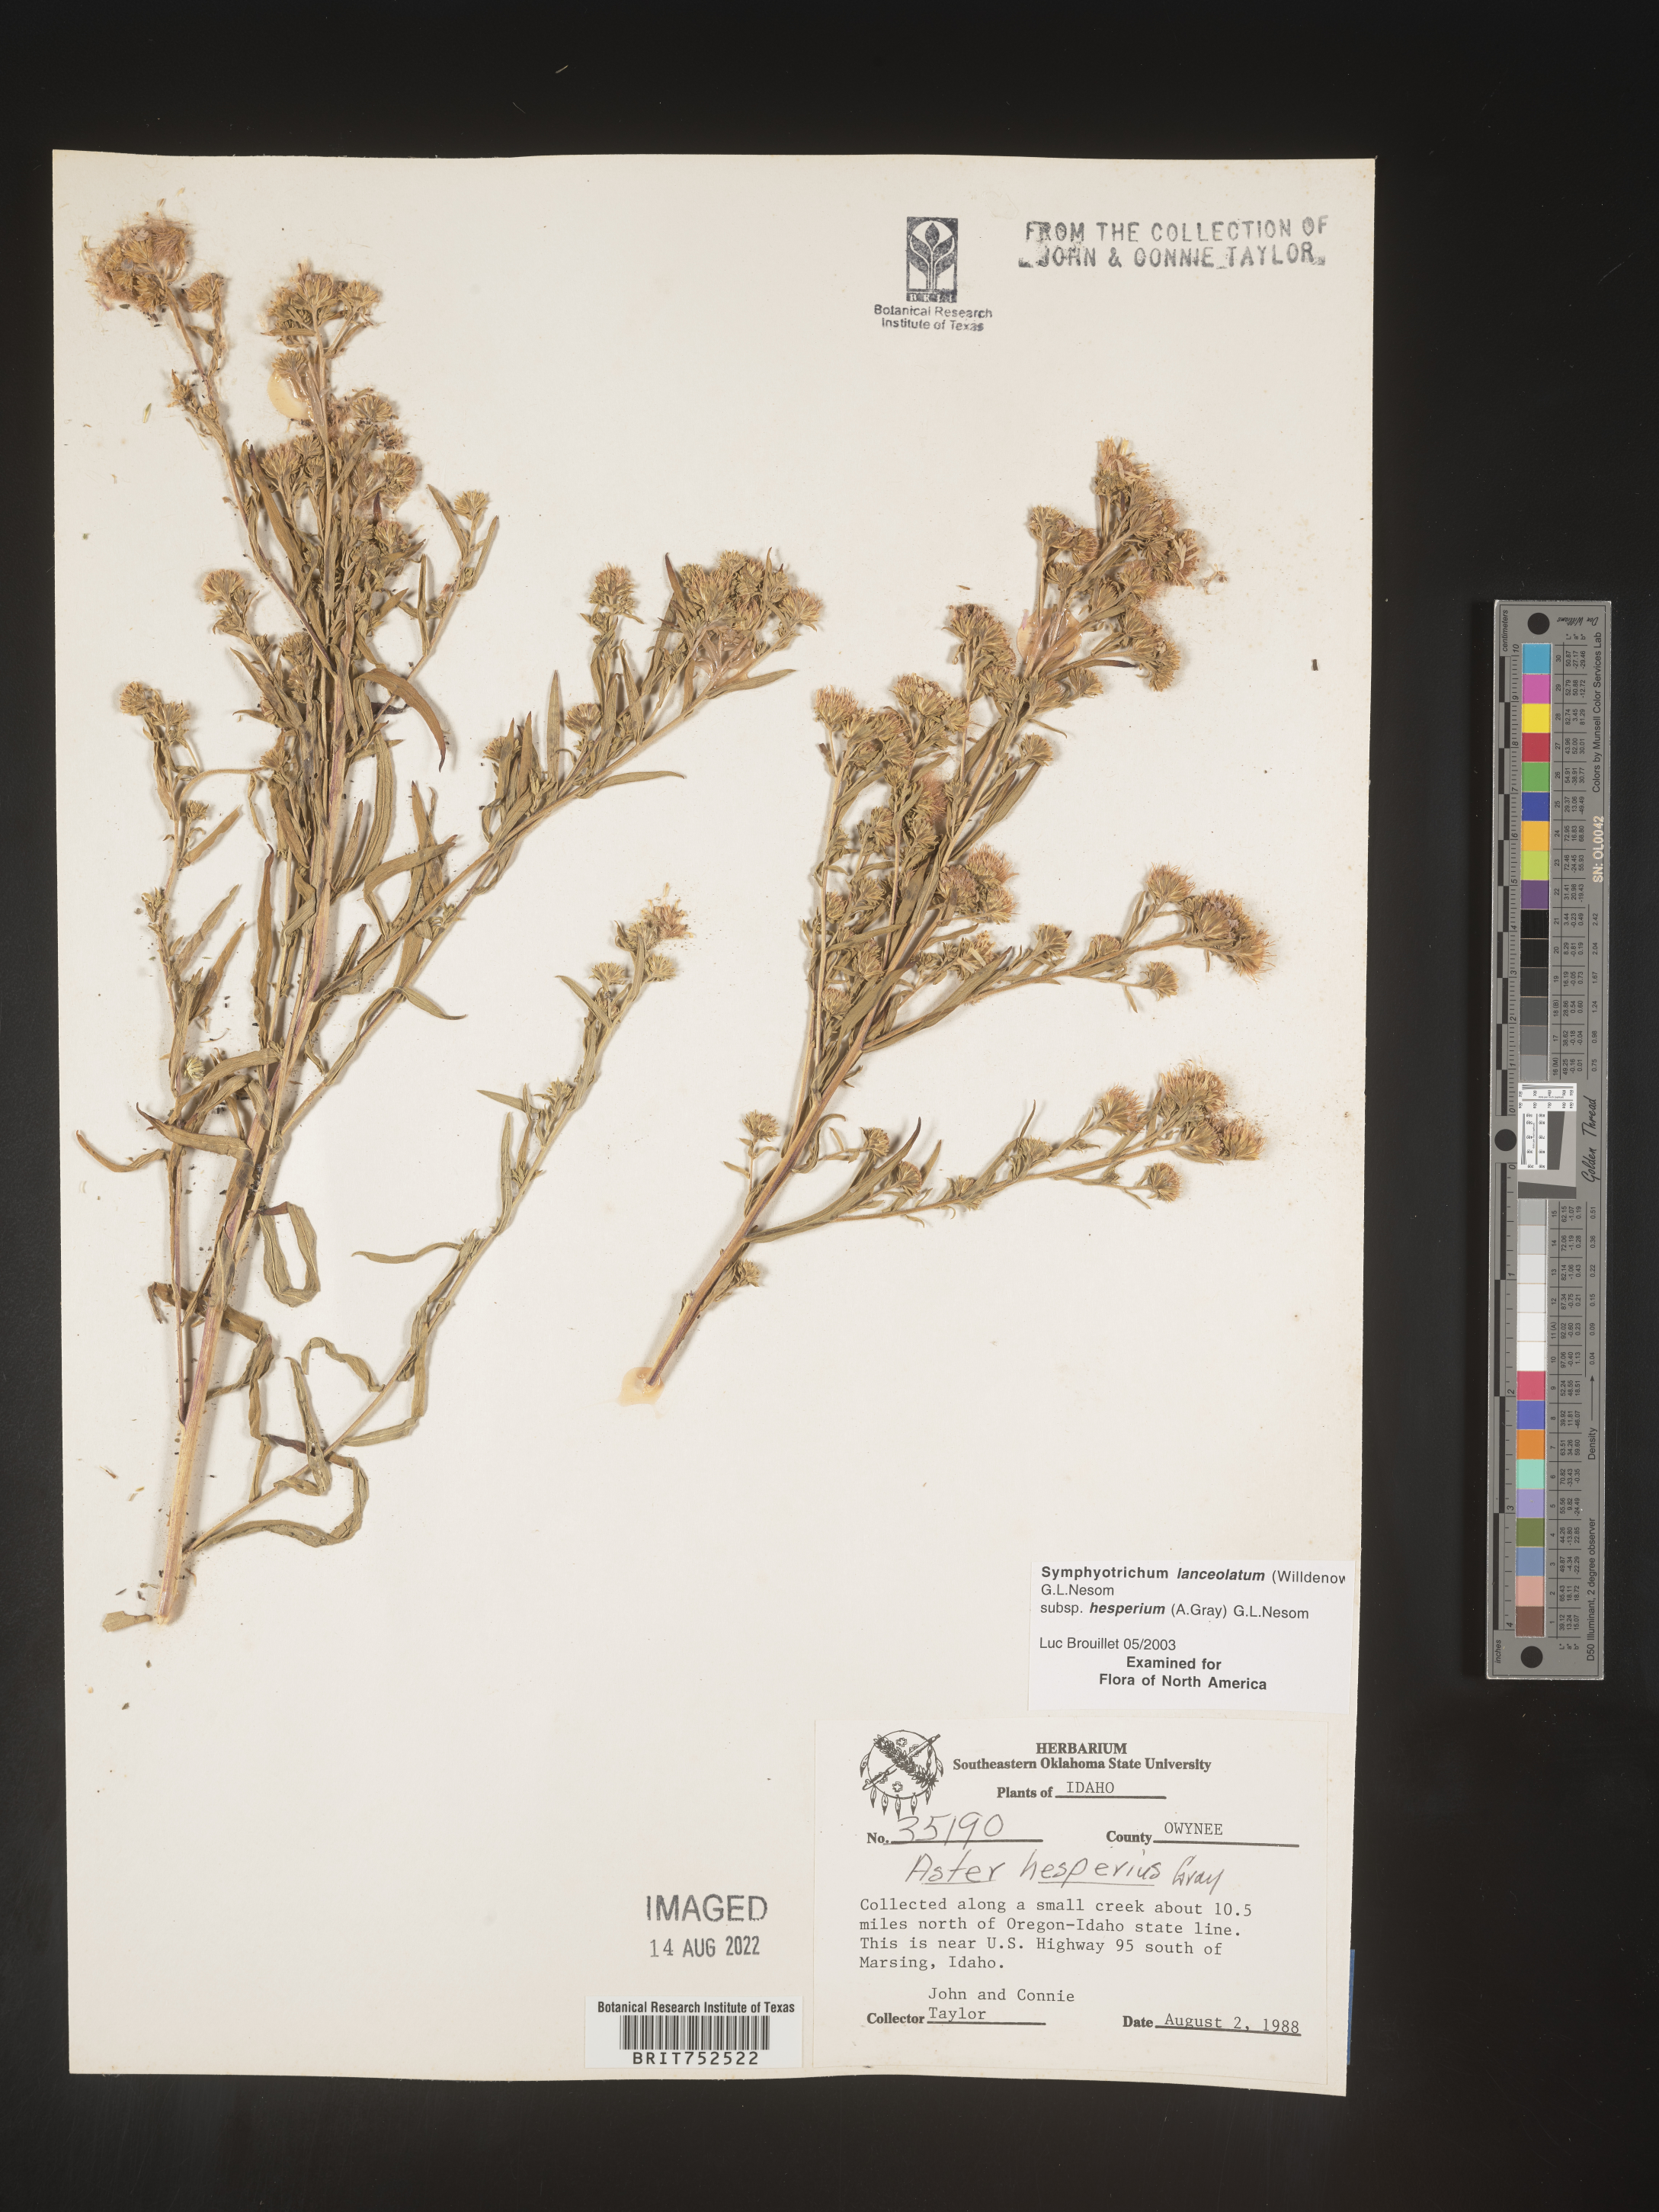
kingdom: Plantae
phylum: Tracheophyta
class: Magnoliopsida
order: Asterales
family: Asteraceae
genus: Symphyotrichum
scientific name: Symphyotrichum lanceolatum
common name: Panicled aster
